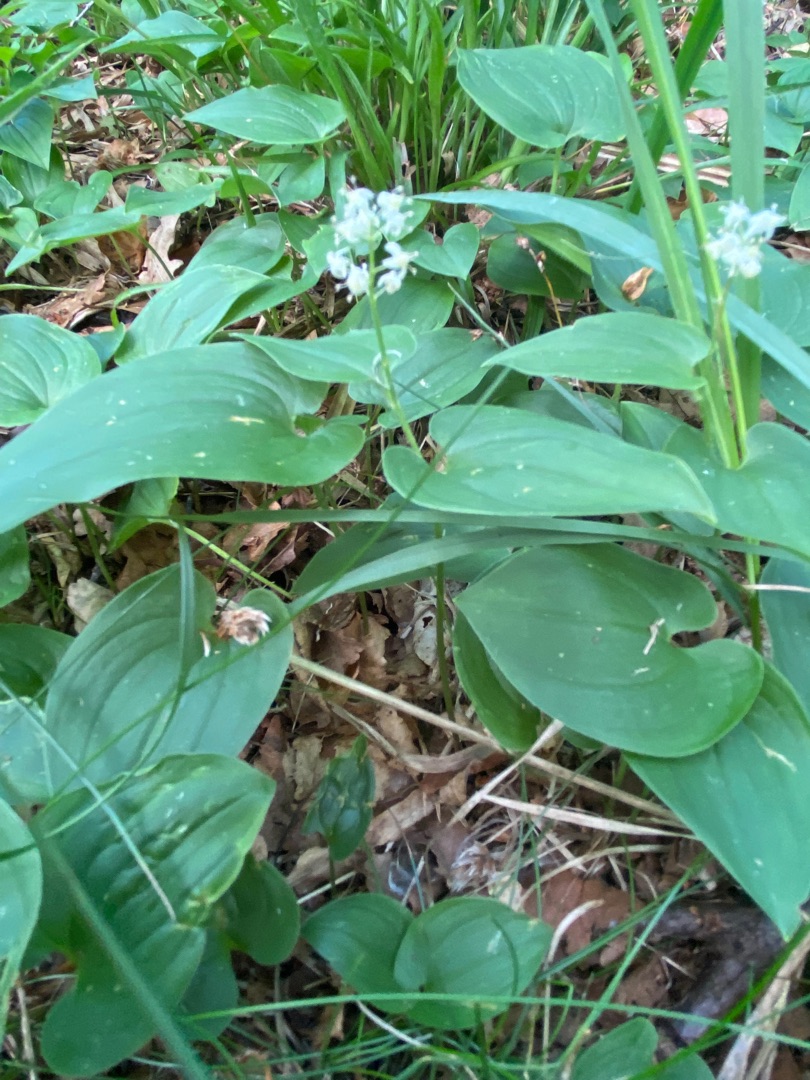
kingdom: Plantae
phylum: Tracheophyta
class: Liliopsida
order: Asparagales
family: Asparagaceae
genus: Maianthemum
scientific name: Maianthemum bifolium
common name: Majblomst
